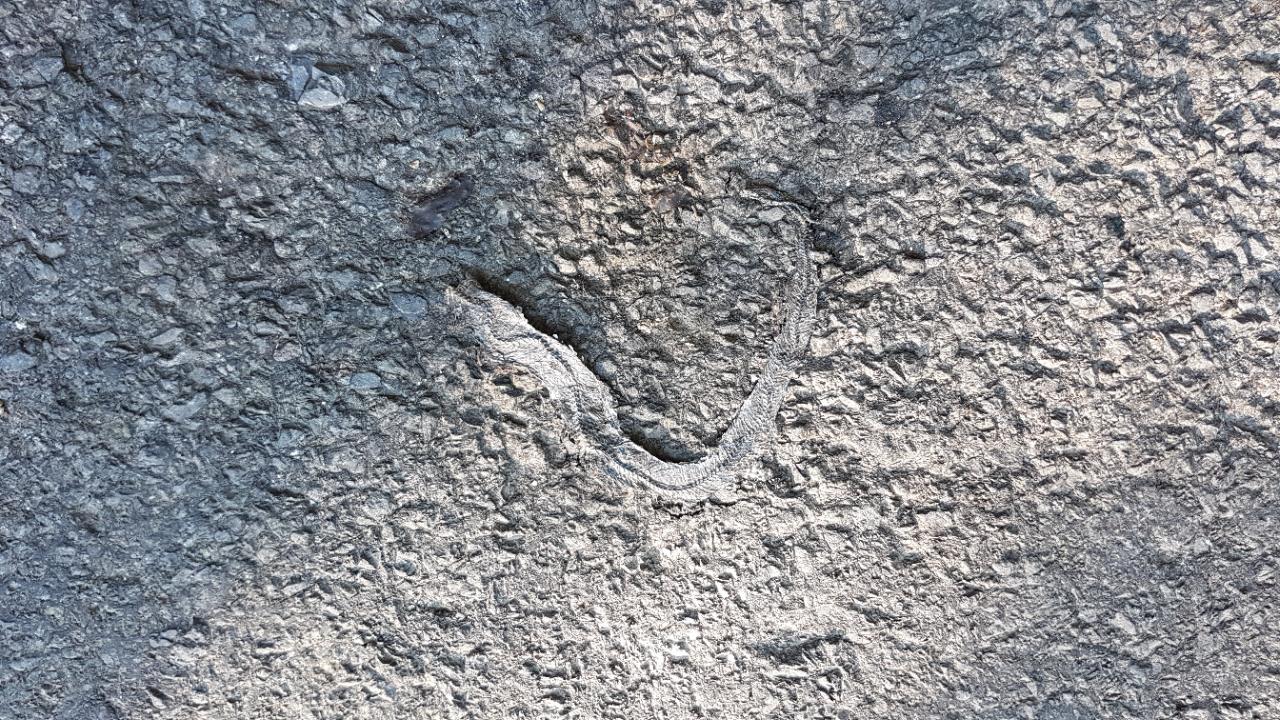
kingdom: Animalia
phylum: Chordata
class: Squamata
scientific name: Squamata
